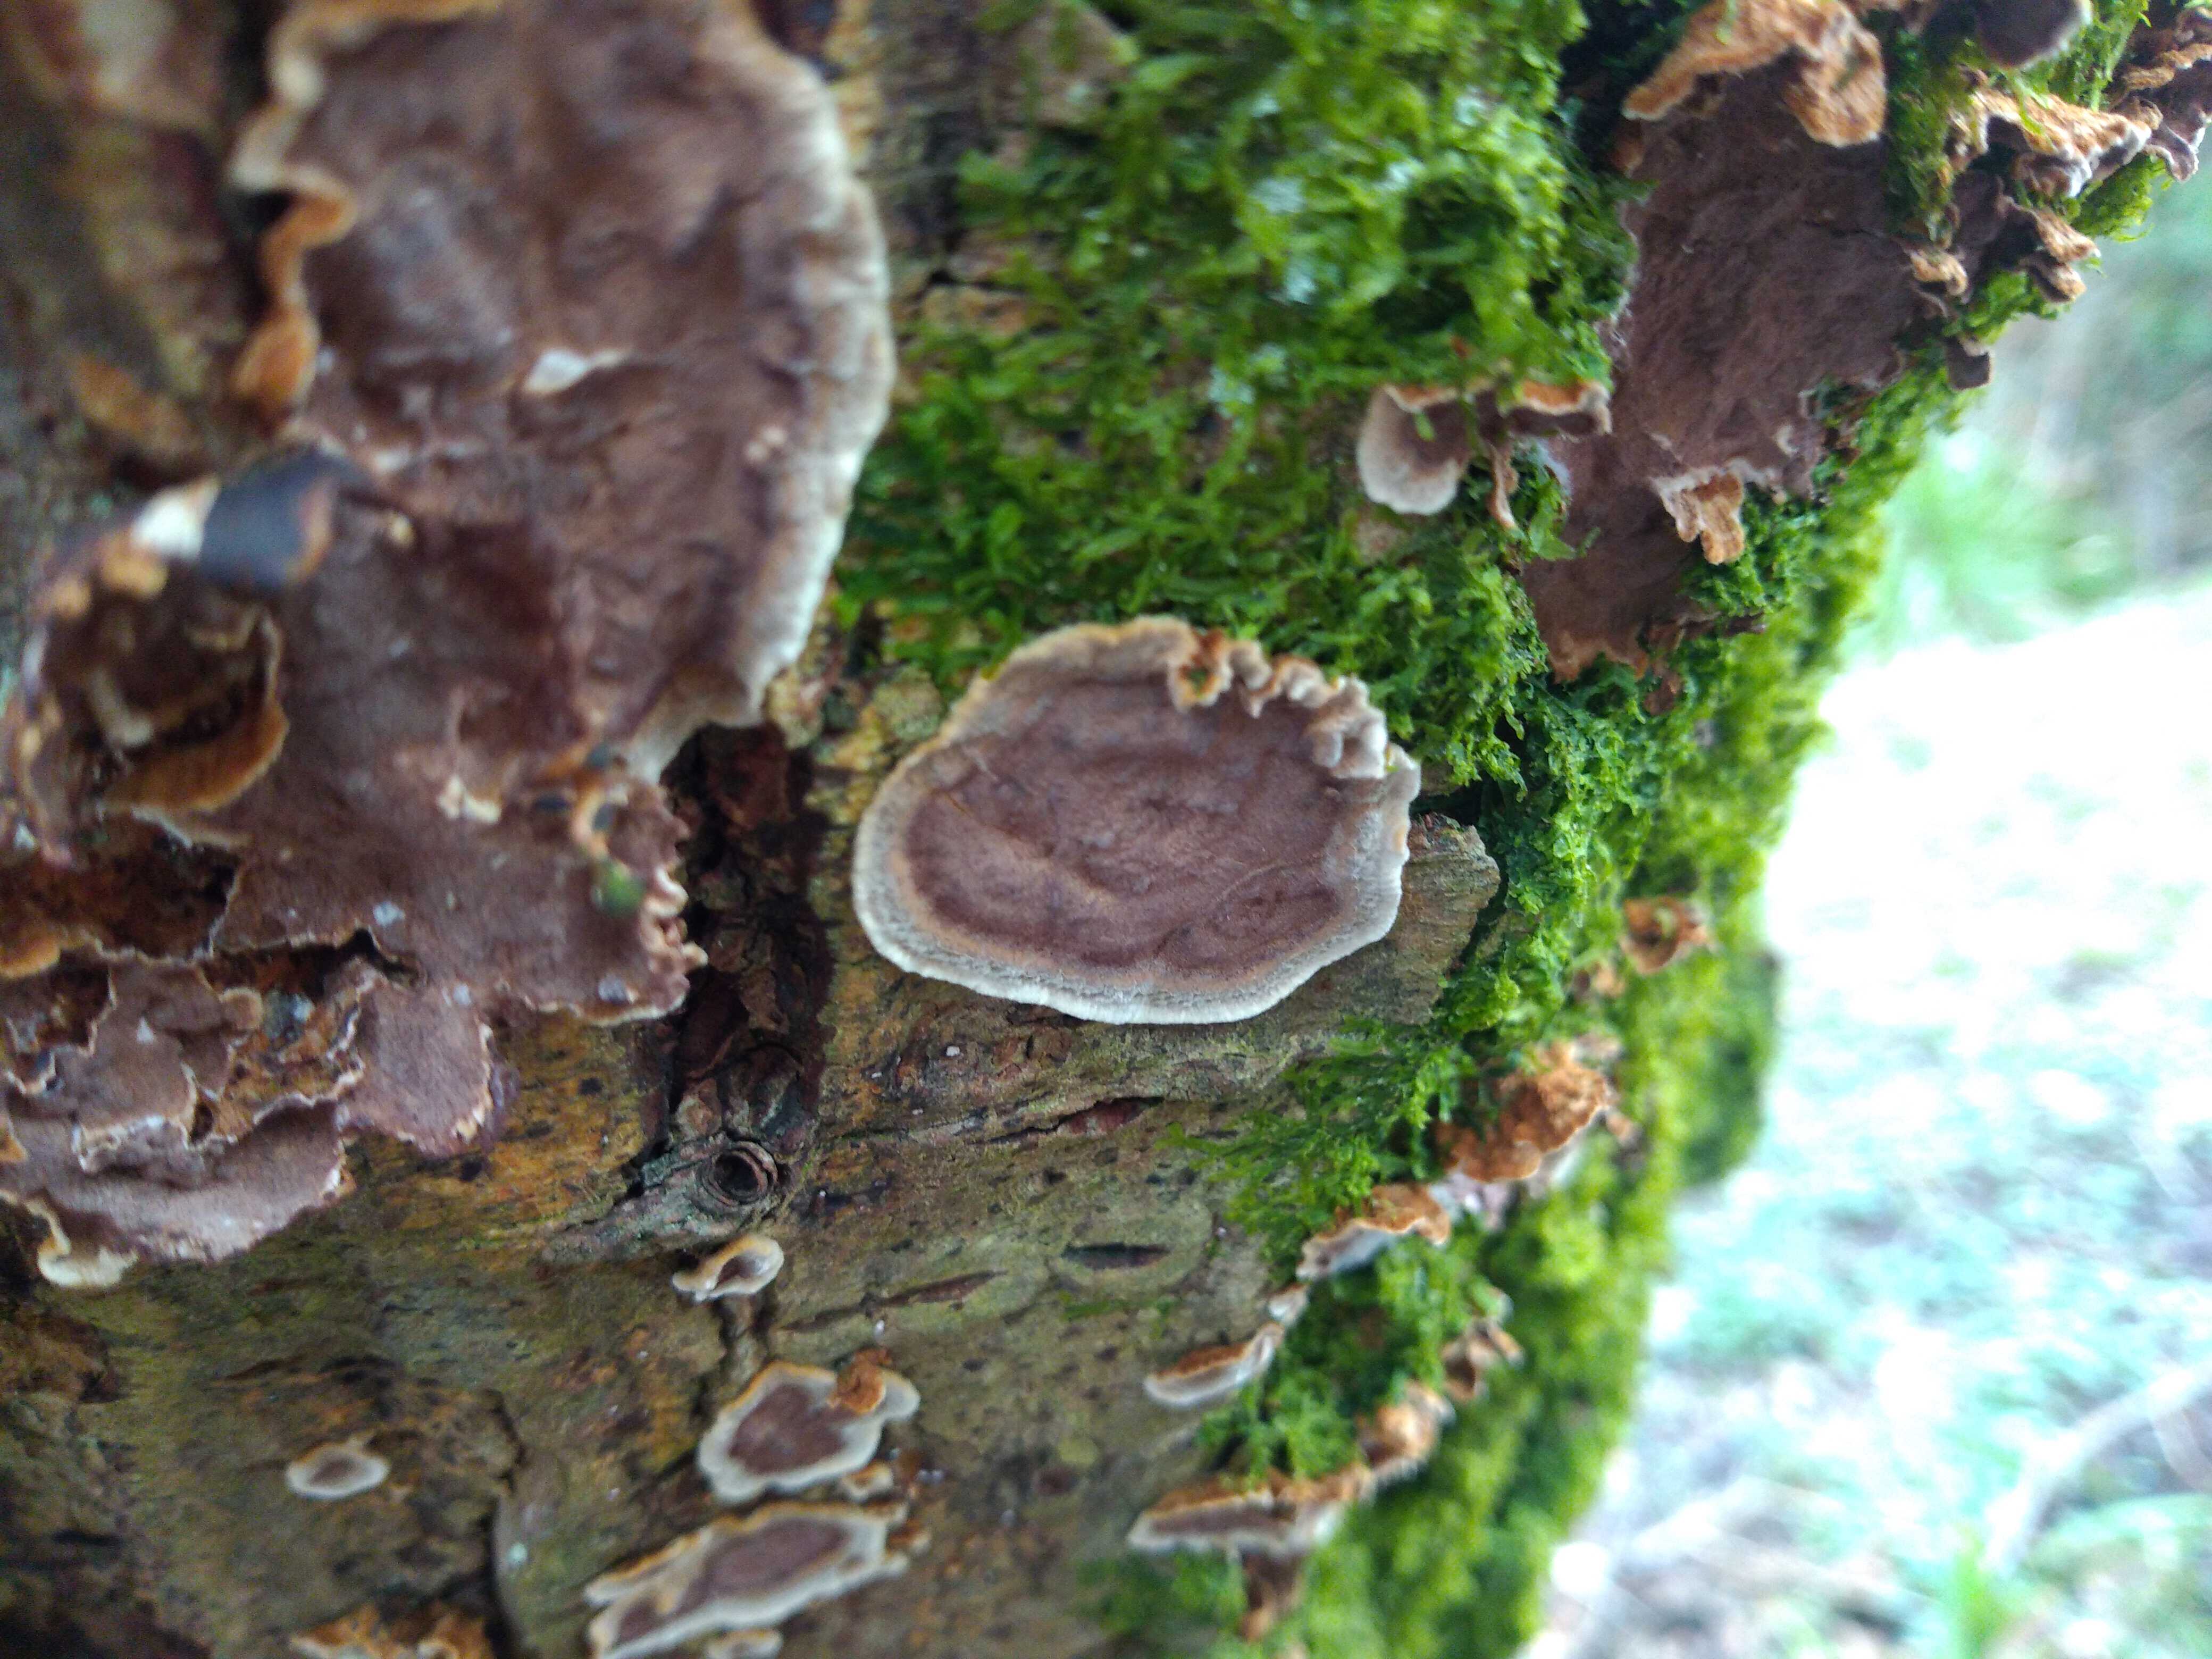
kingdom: Fungi
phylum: Basidiomycota
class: Agaricomycetes
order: Hymenochaetales
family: Hymenochaetaceae
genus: Hydnoporia
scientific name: Hydnoporia tabacina
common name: tobaksbrun ruslædersvamp
